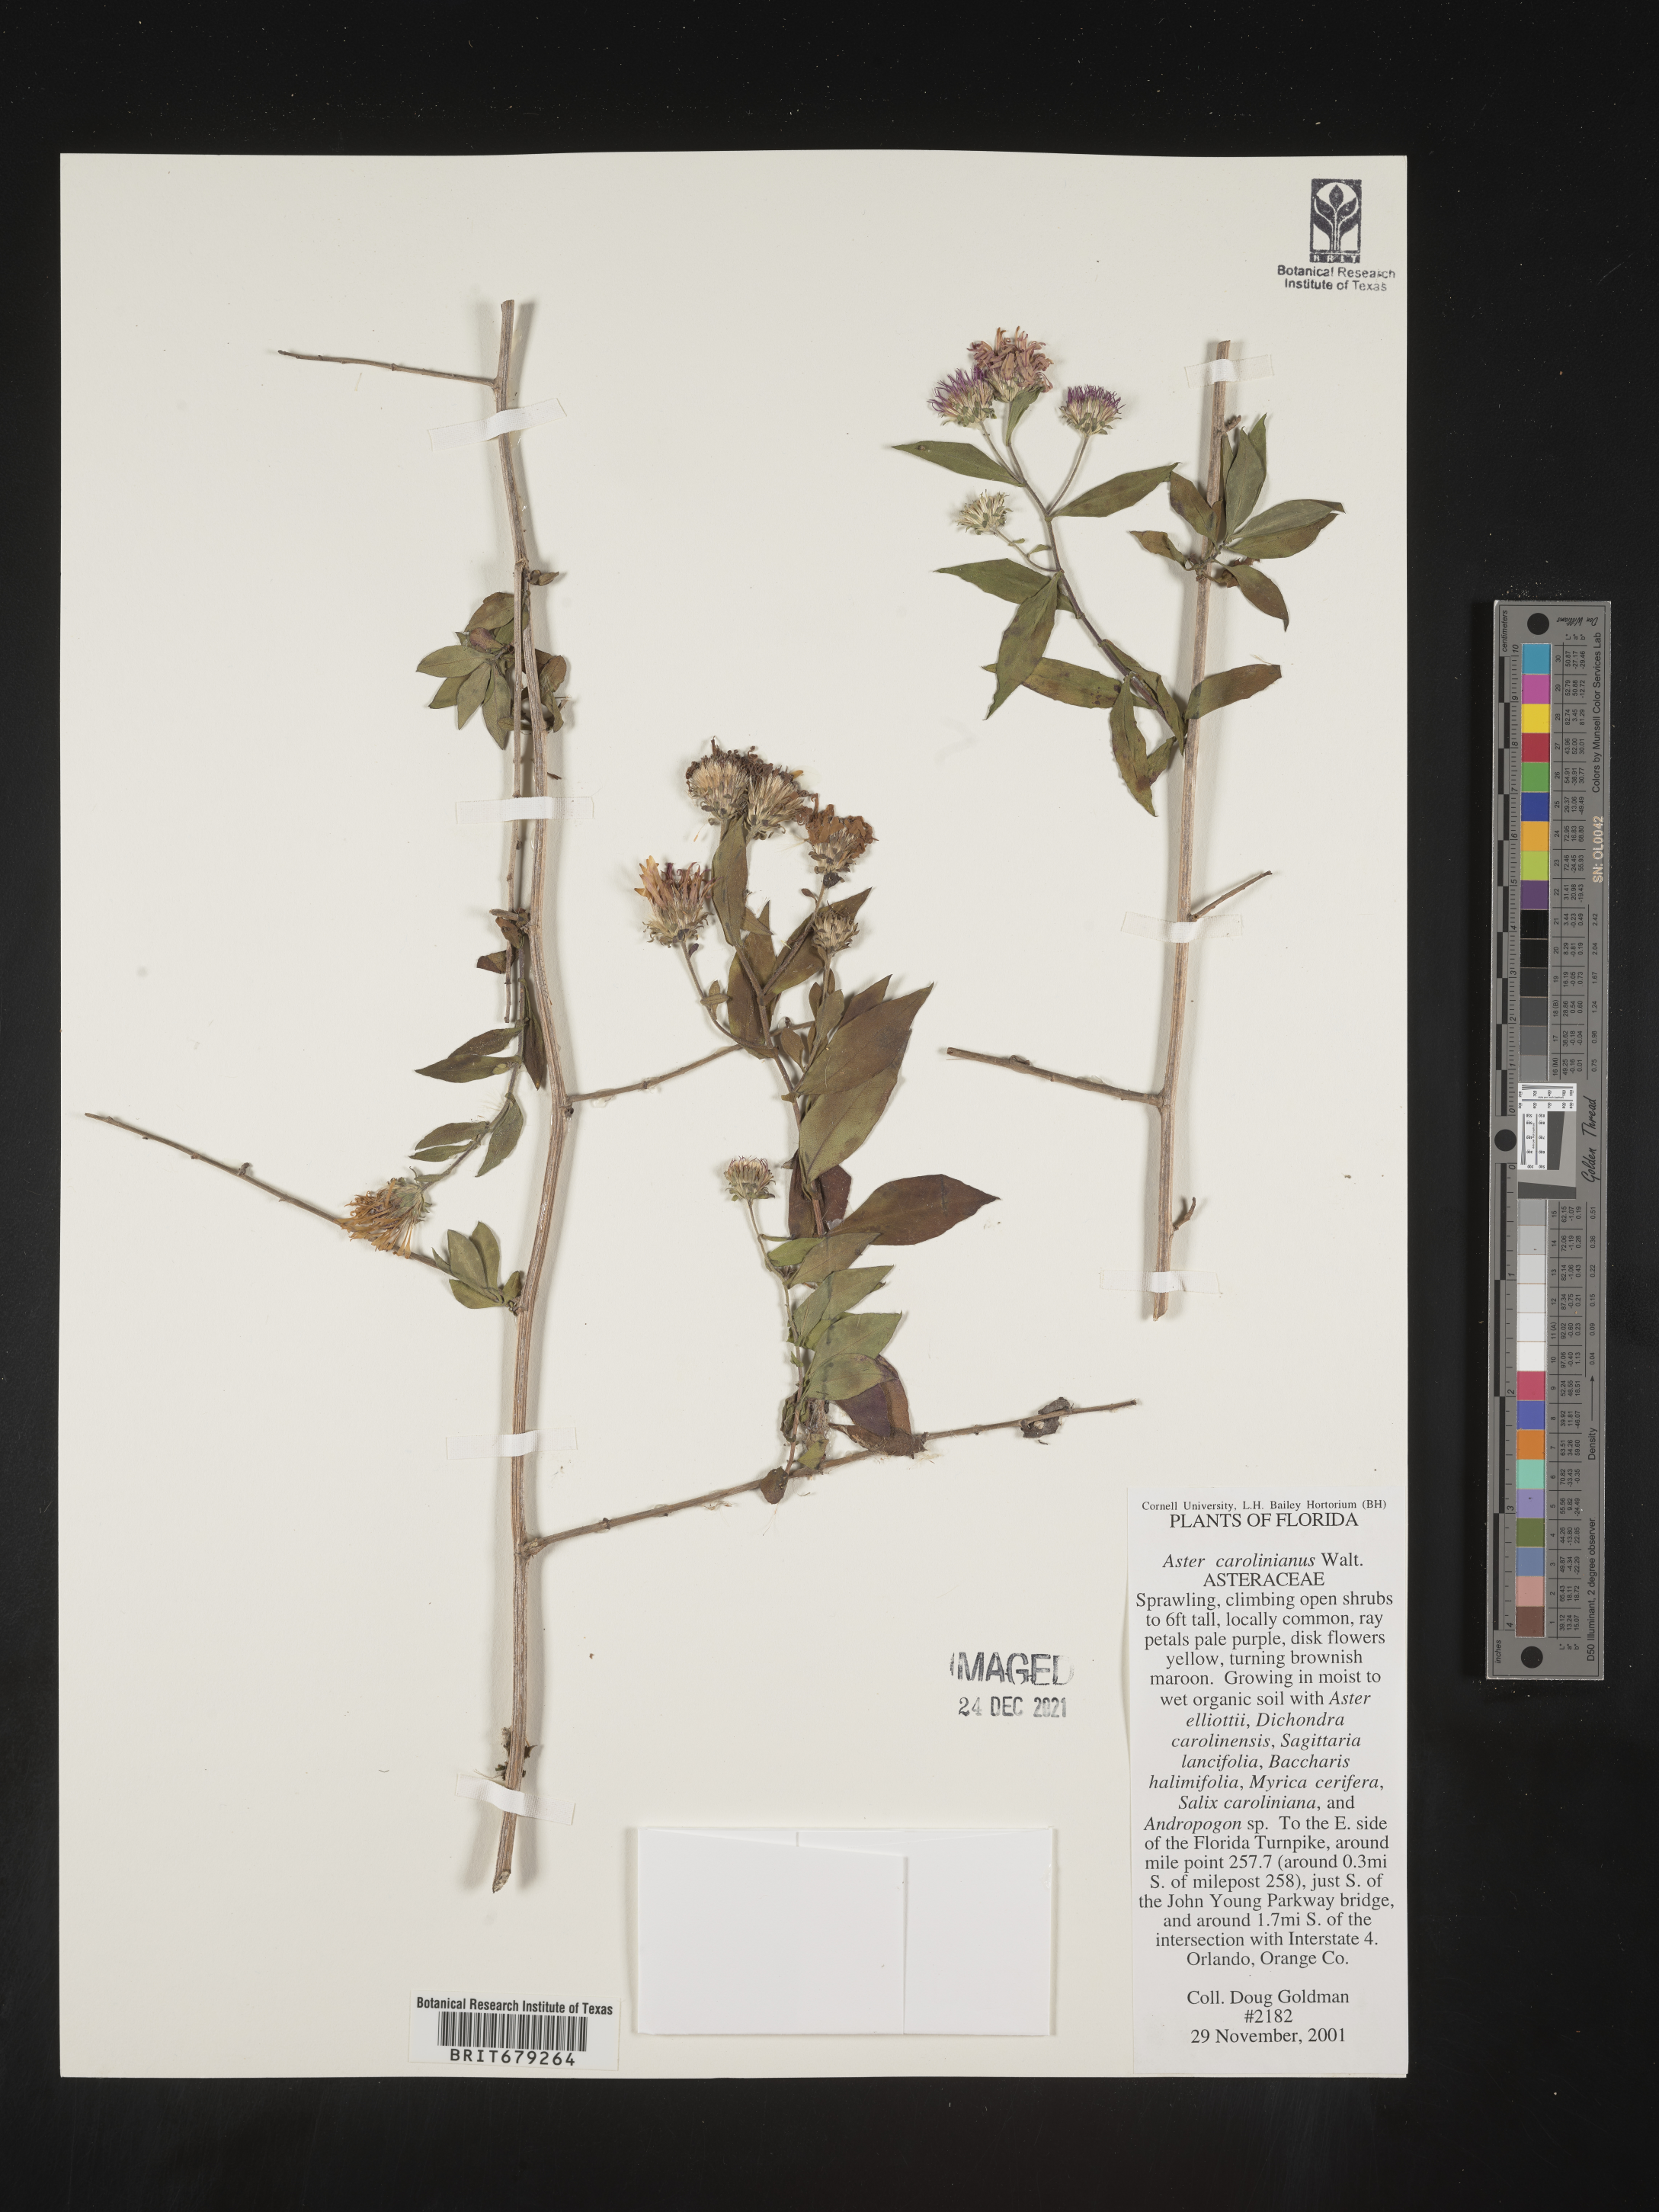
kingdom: Plantae
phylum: Tracheophyta
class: Magnoliopsida
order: Asterales
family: Asteraceae
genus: Ampelaster
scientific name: Ampelaster
